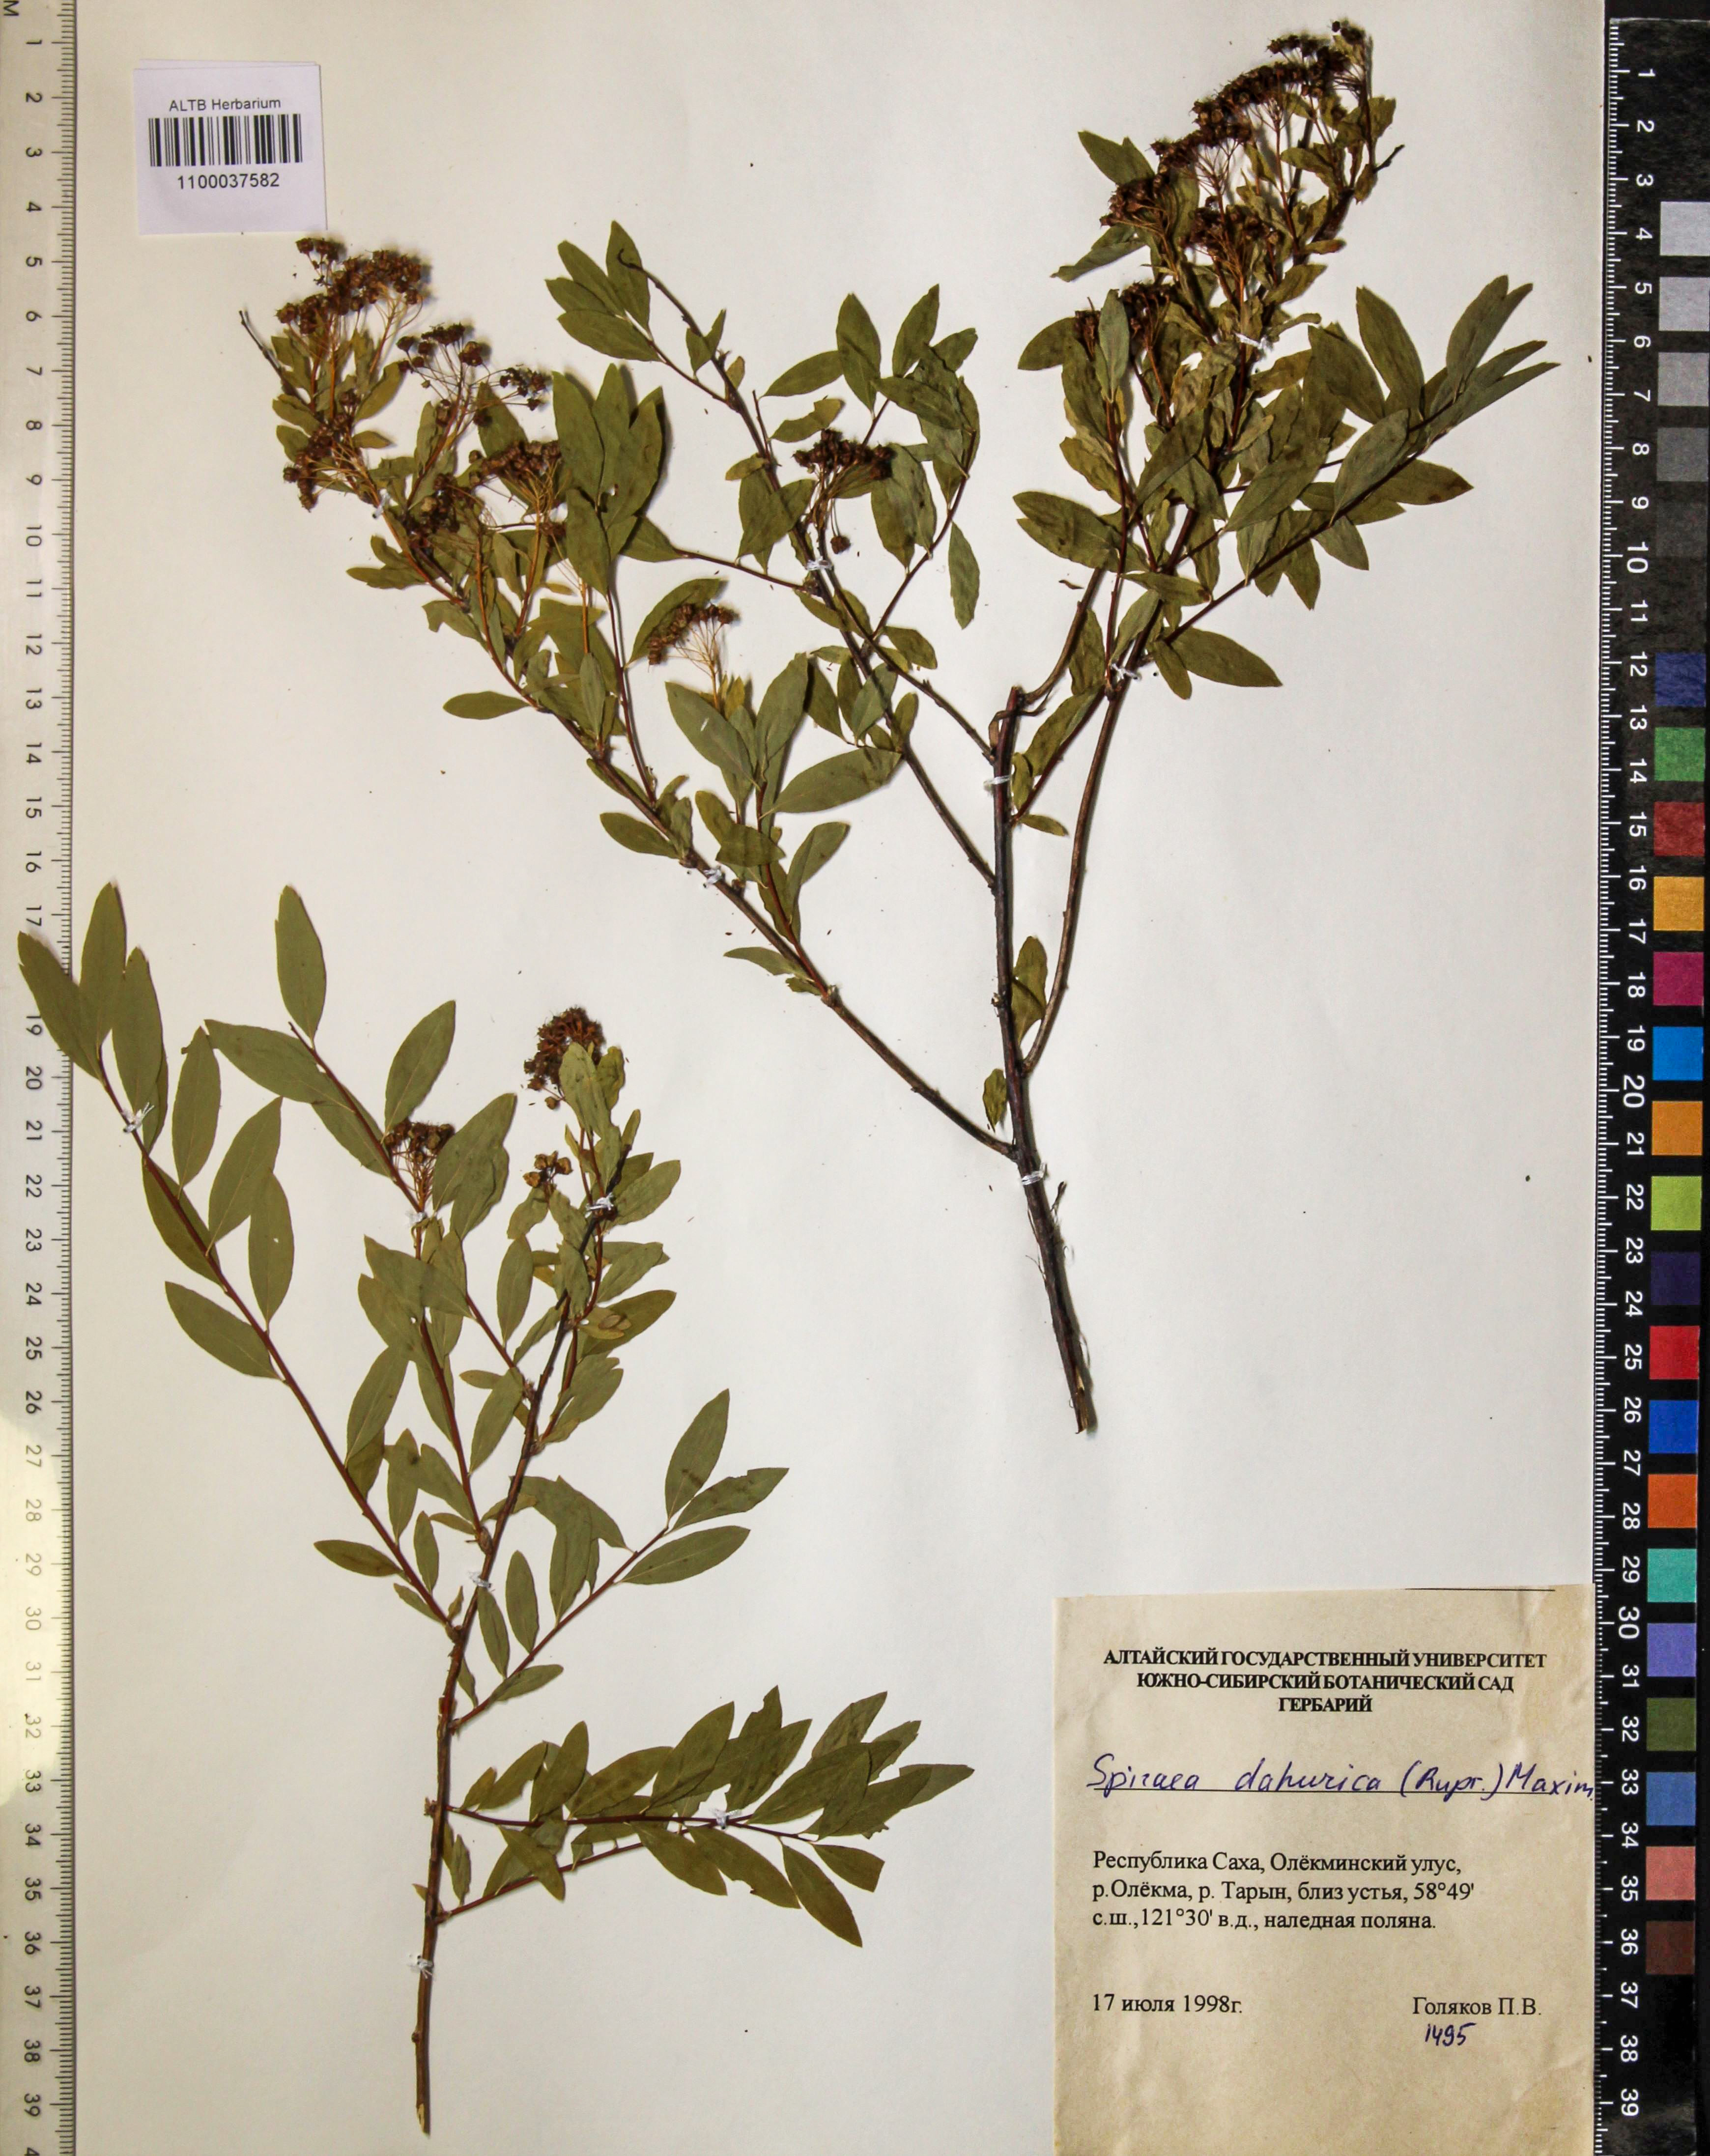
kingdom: Plantae
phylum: Tracheophyta
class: Magnoliopsida
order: Rosales
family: Rosaceae
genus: Spiraea
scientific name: Spiraea dahurica
